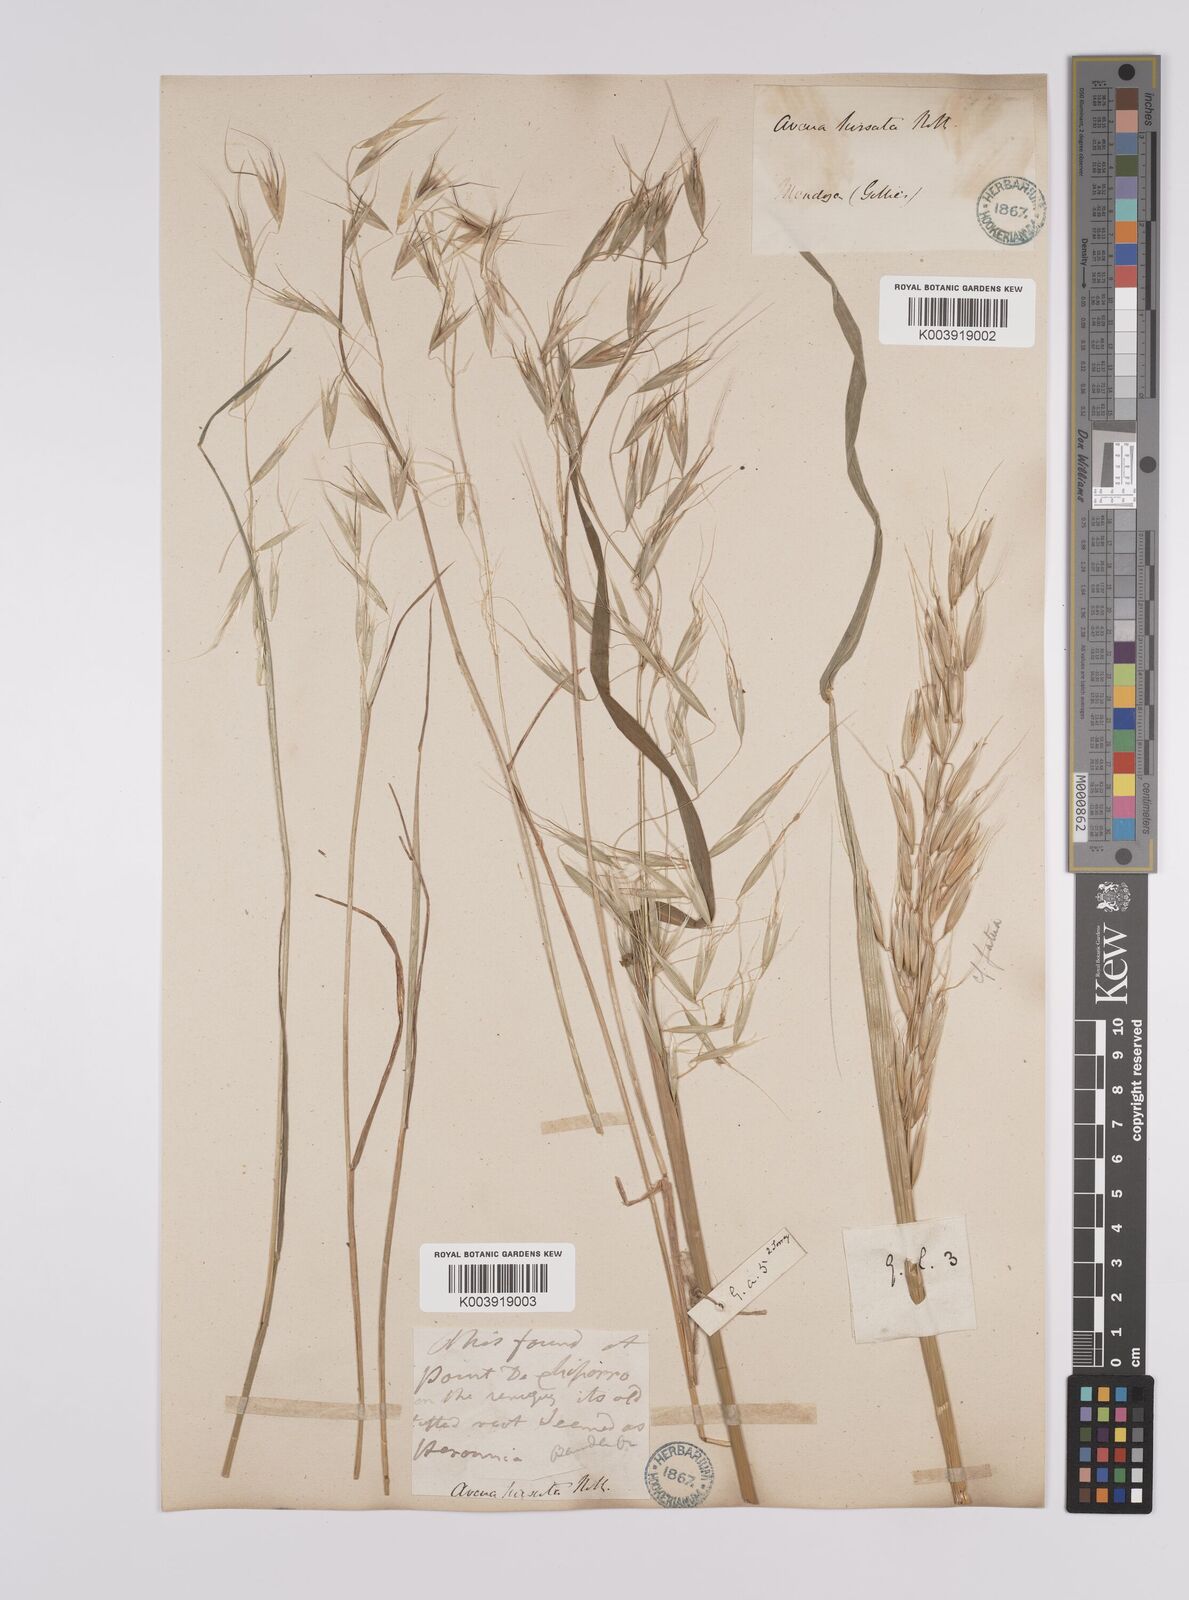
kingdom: Plantae
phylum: Tracheophyta
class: Liliopsida
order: Poales
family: Poaceae
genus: Avena
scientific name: Avena
